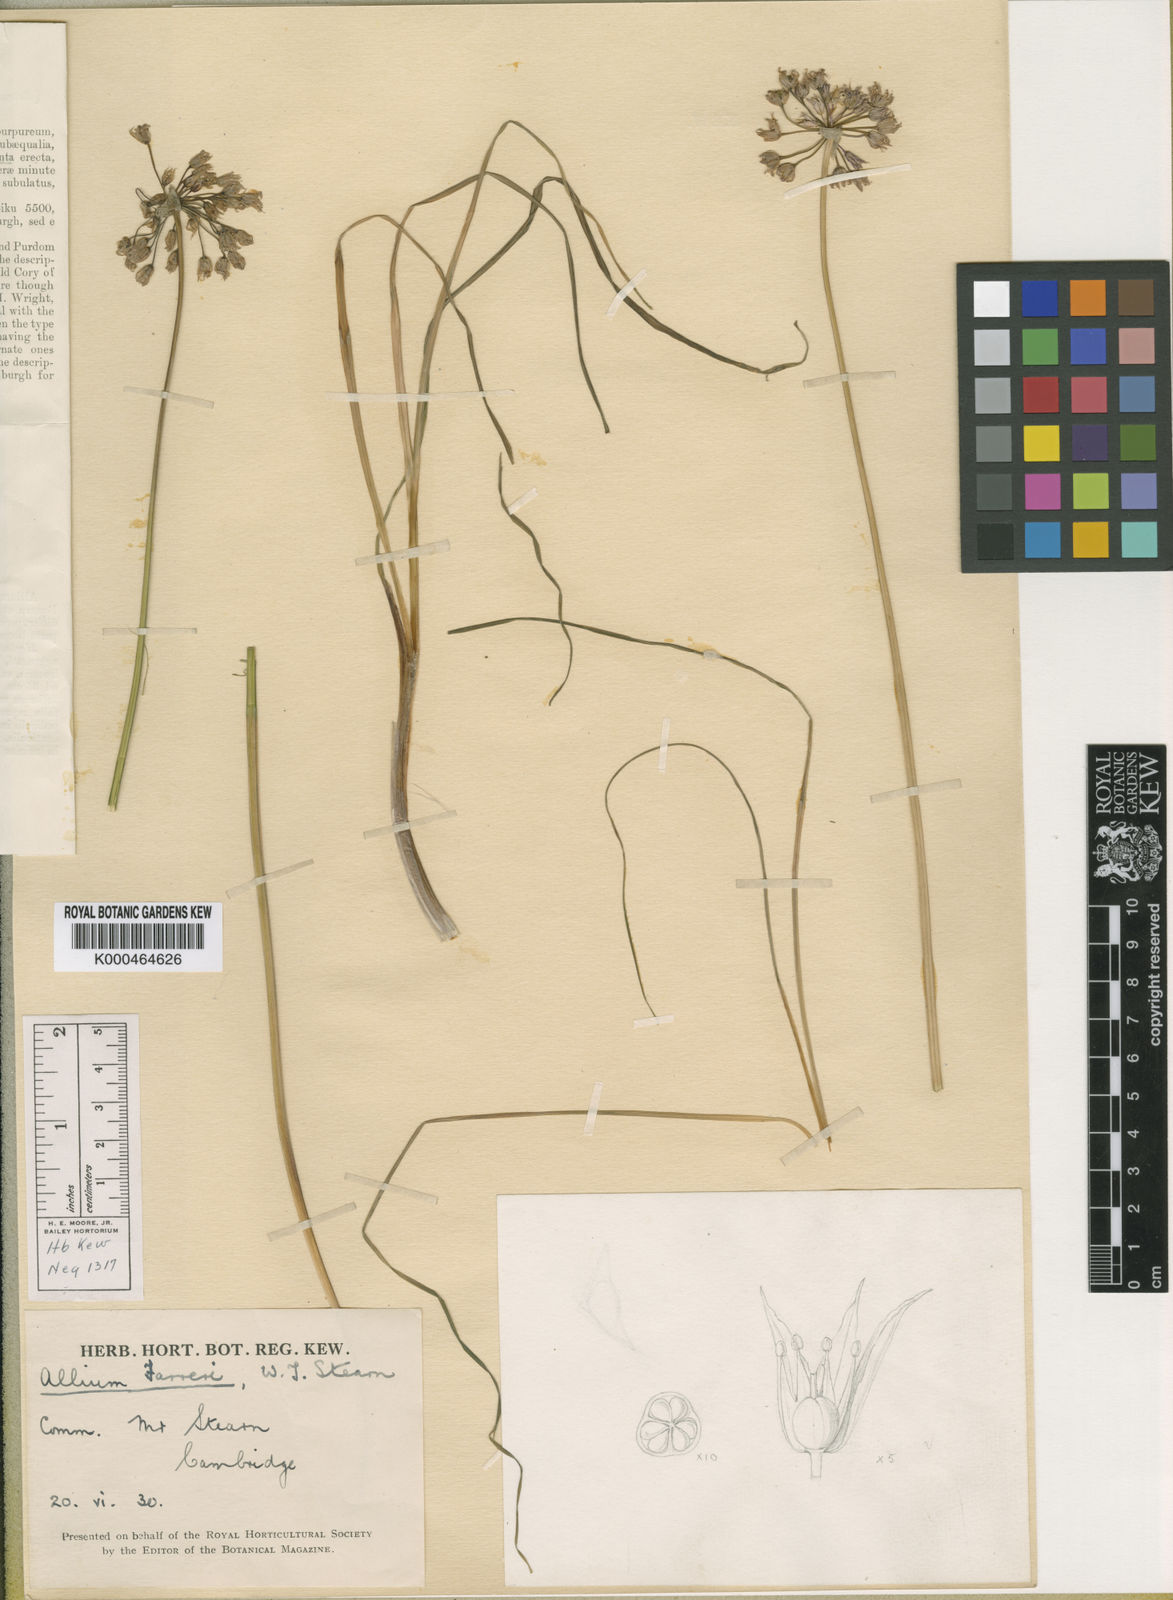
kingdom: Plantae
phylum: Tracheophyta
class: Liliopsida
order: Asparagales
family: Amaryllidaceae
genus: Allium
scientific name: Allium farreri
